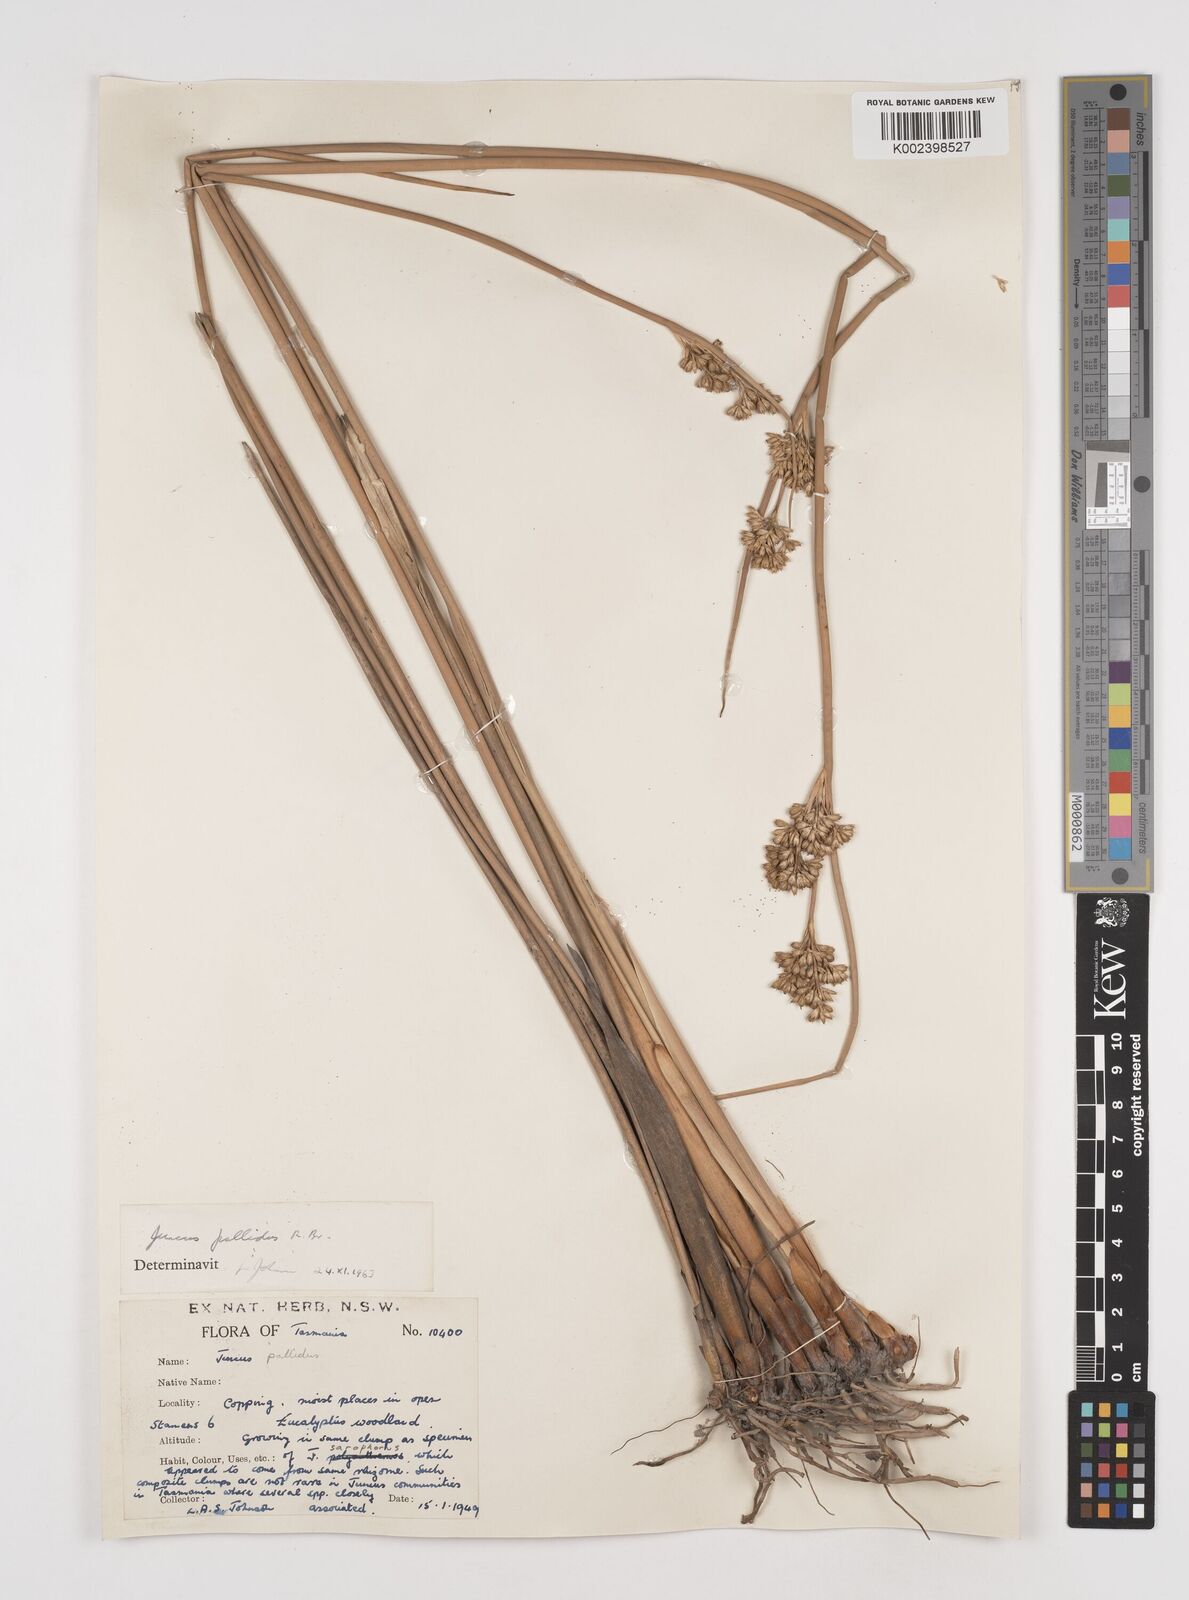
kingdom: Plantae
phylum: Tracheophyta
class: Liliopsida
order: Poales
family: Juncaceae
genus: Juncus
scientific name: Juncus pallidus
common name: Great soft-rush
